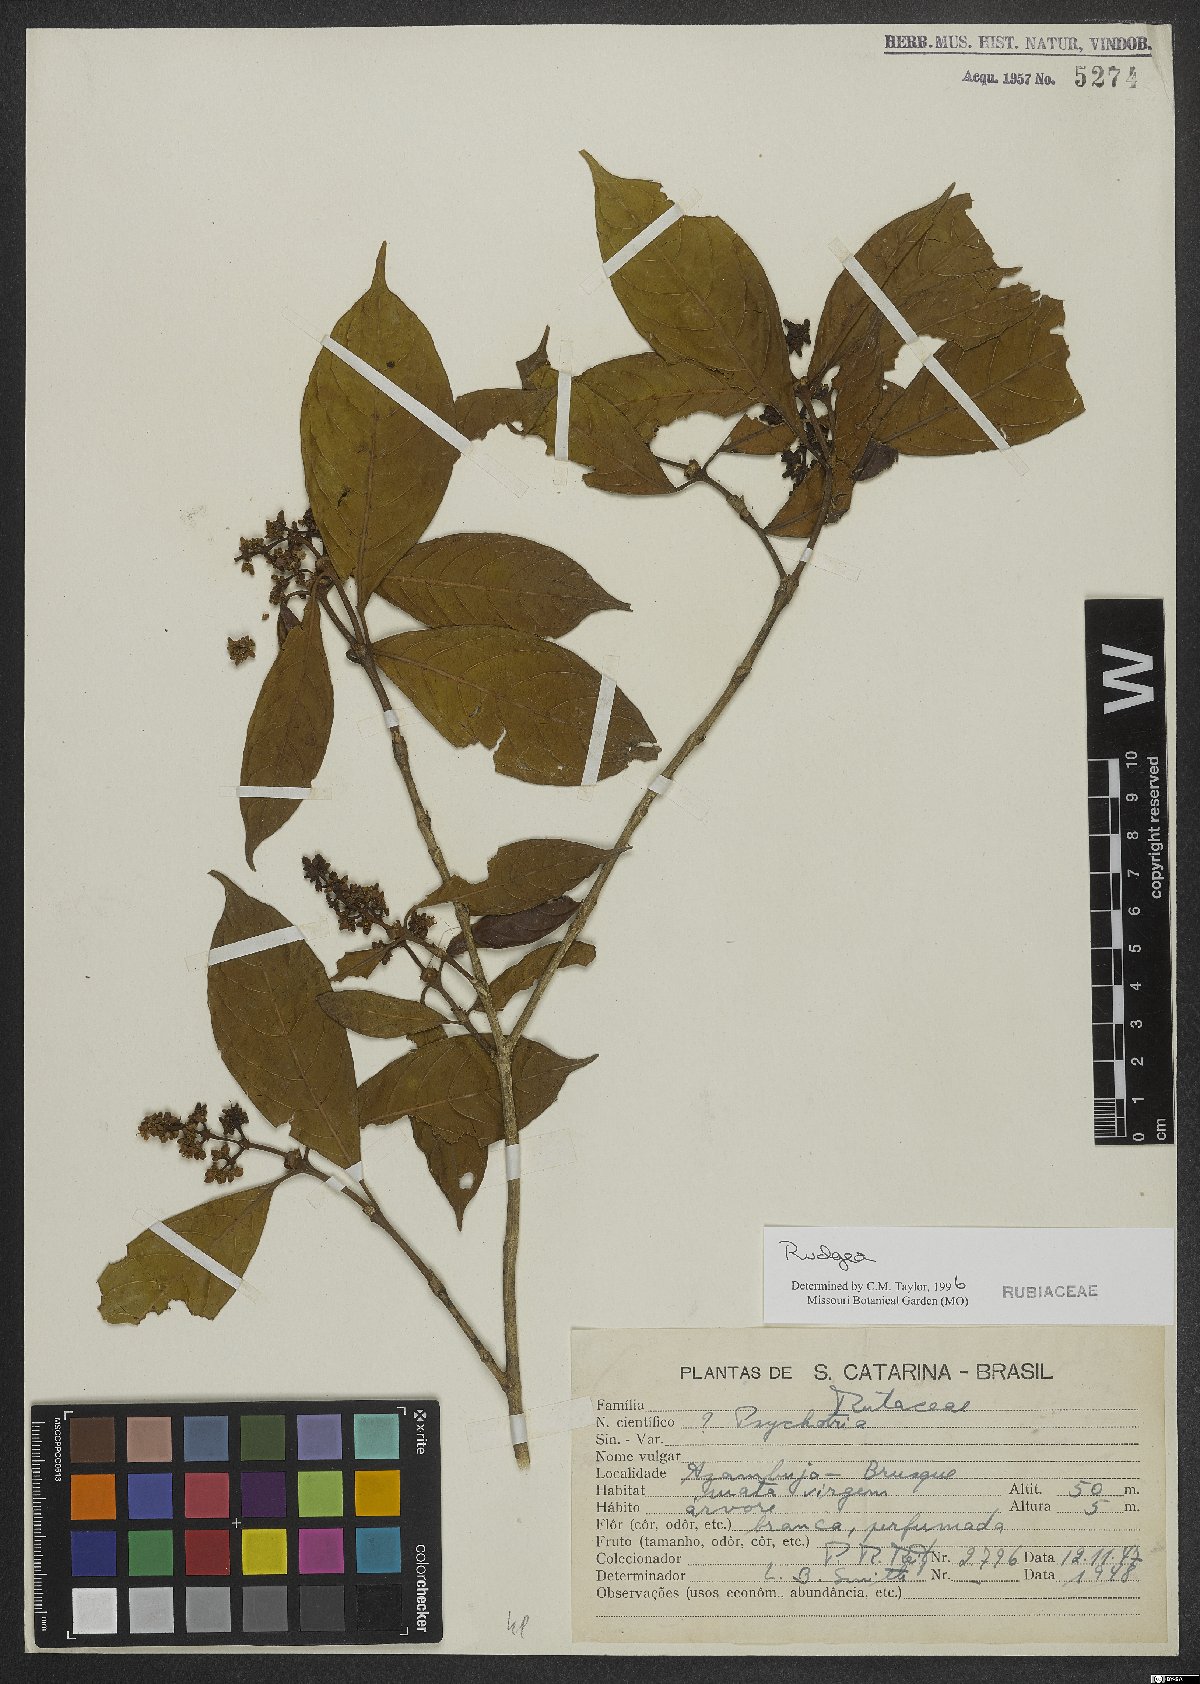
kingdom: Plantae
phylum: Tracheophyta
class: Magnoliopsida
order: Gentianales
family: Rubiaceae
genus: Rudgea
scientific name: Rudgea
